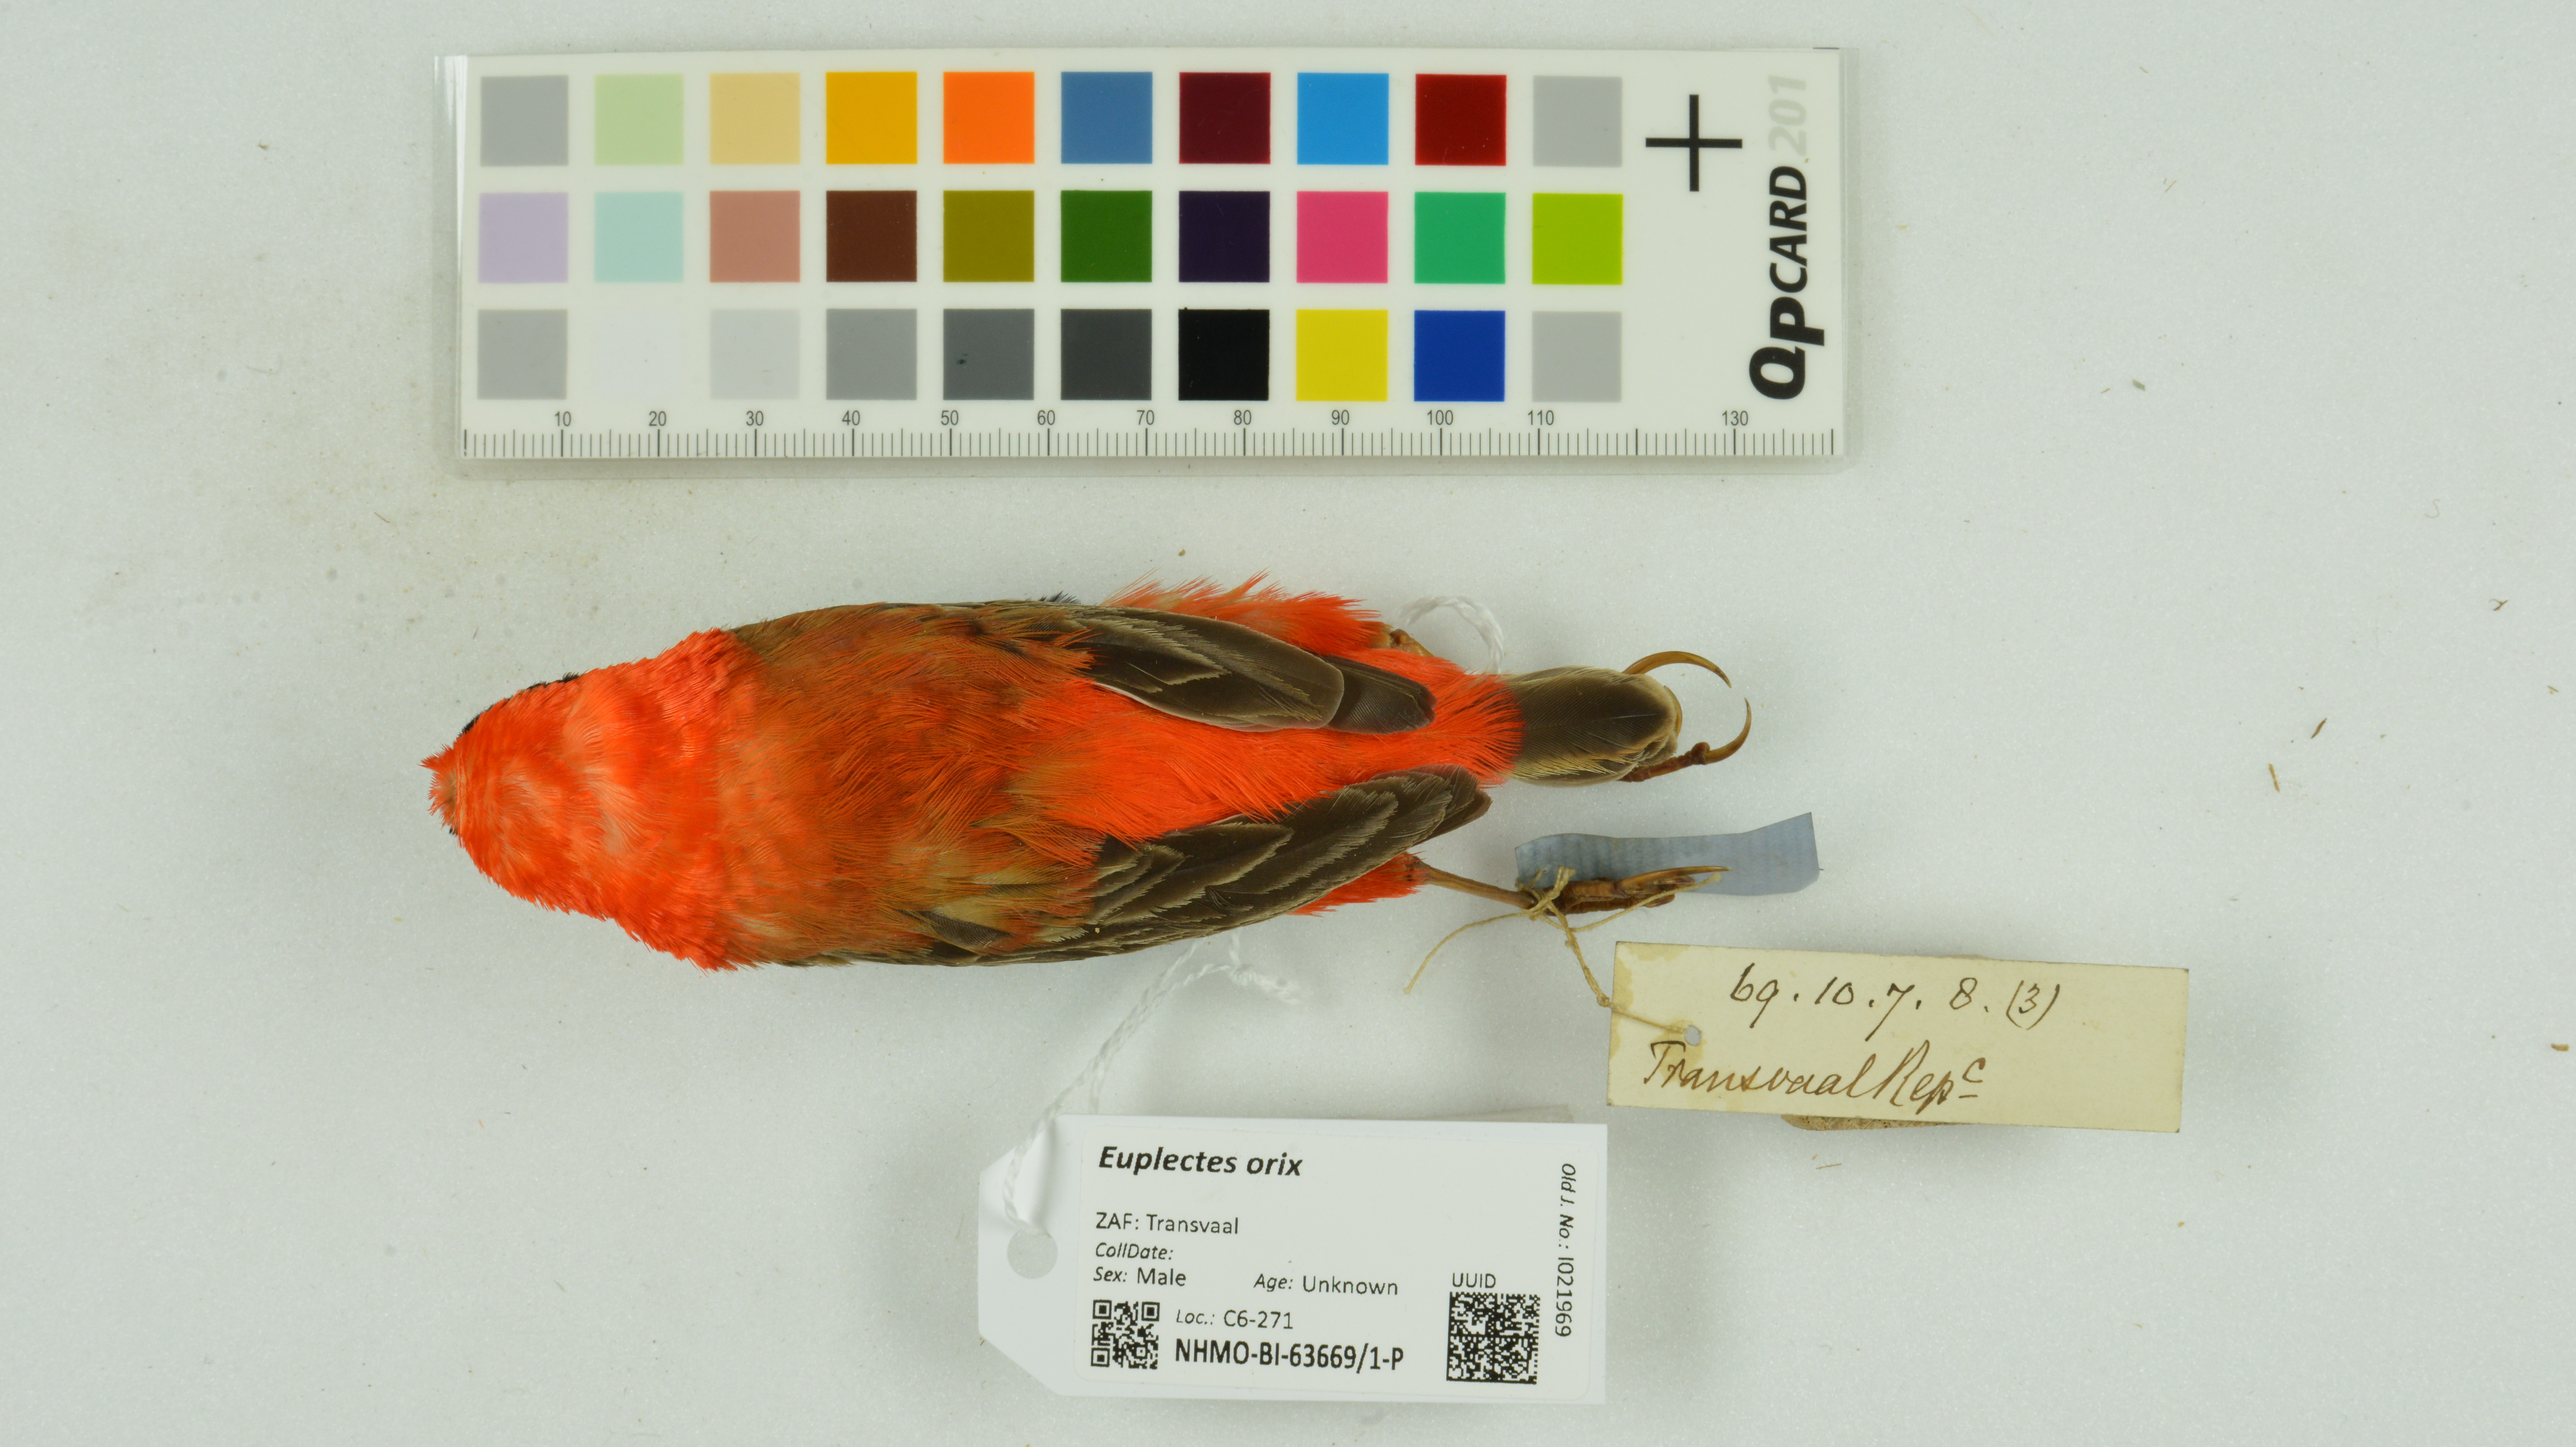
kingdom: Animalia
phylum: Chordata
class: Aves
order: Passeriformes
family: Ploceidae
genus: Euplectes
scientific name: Euplectes orix
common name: Southern red bishop
